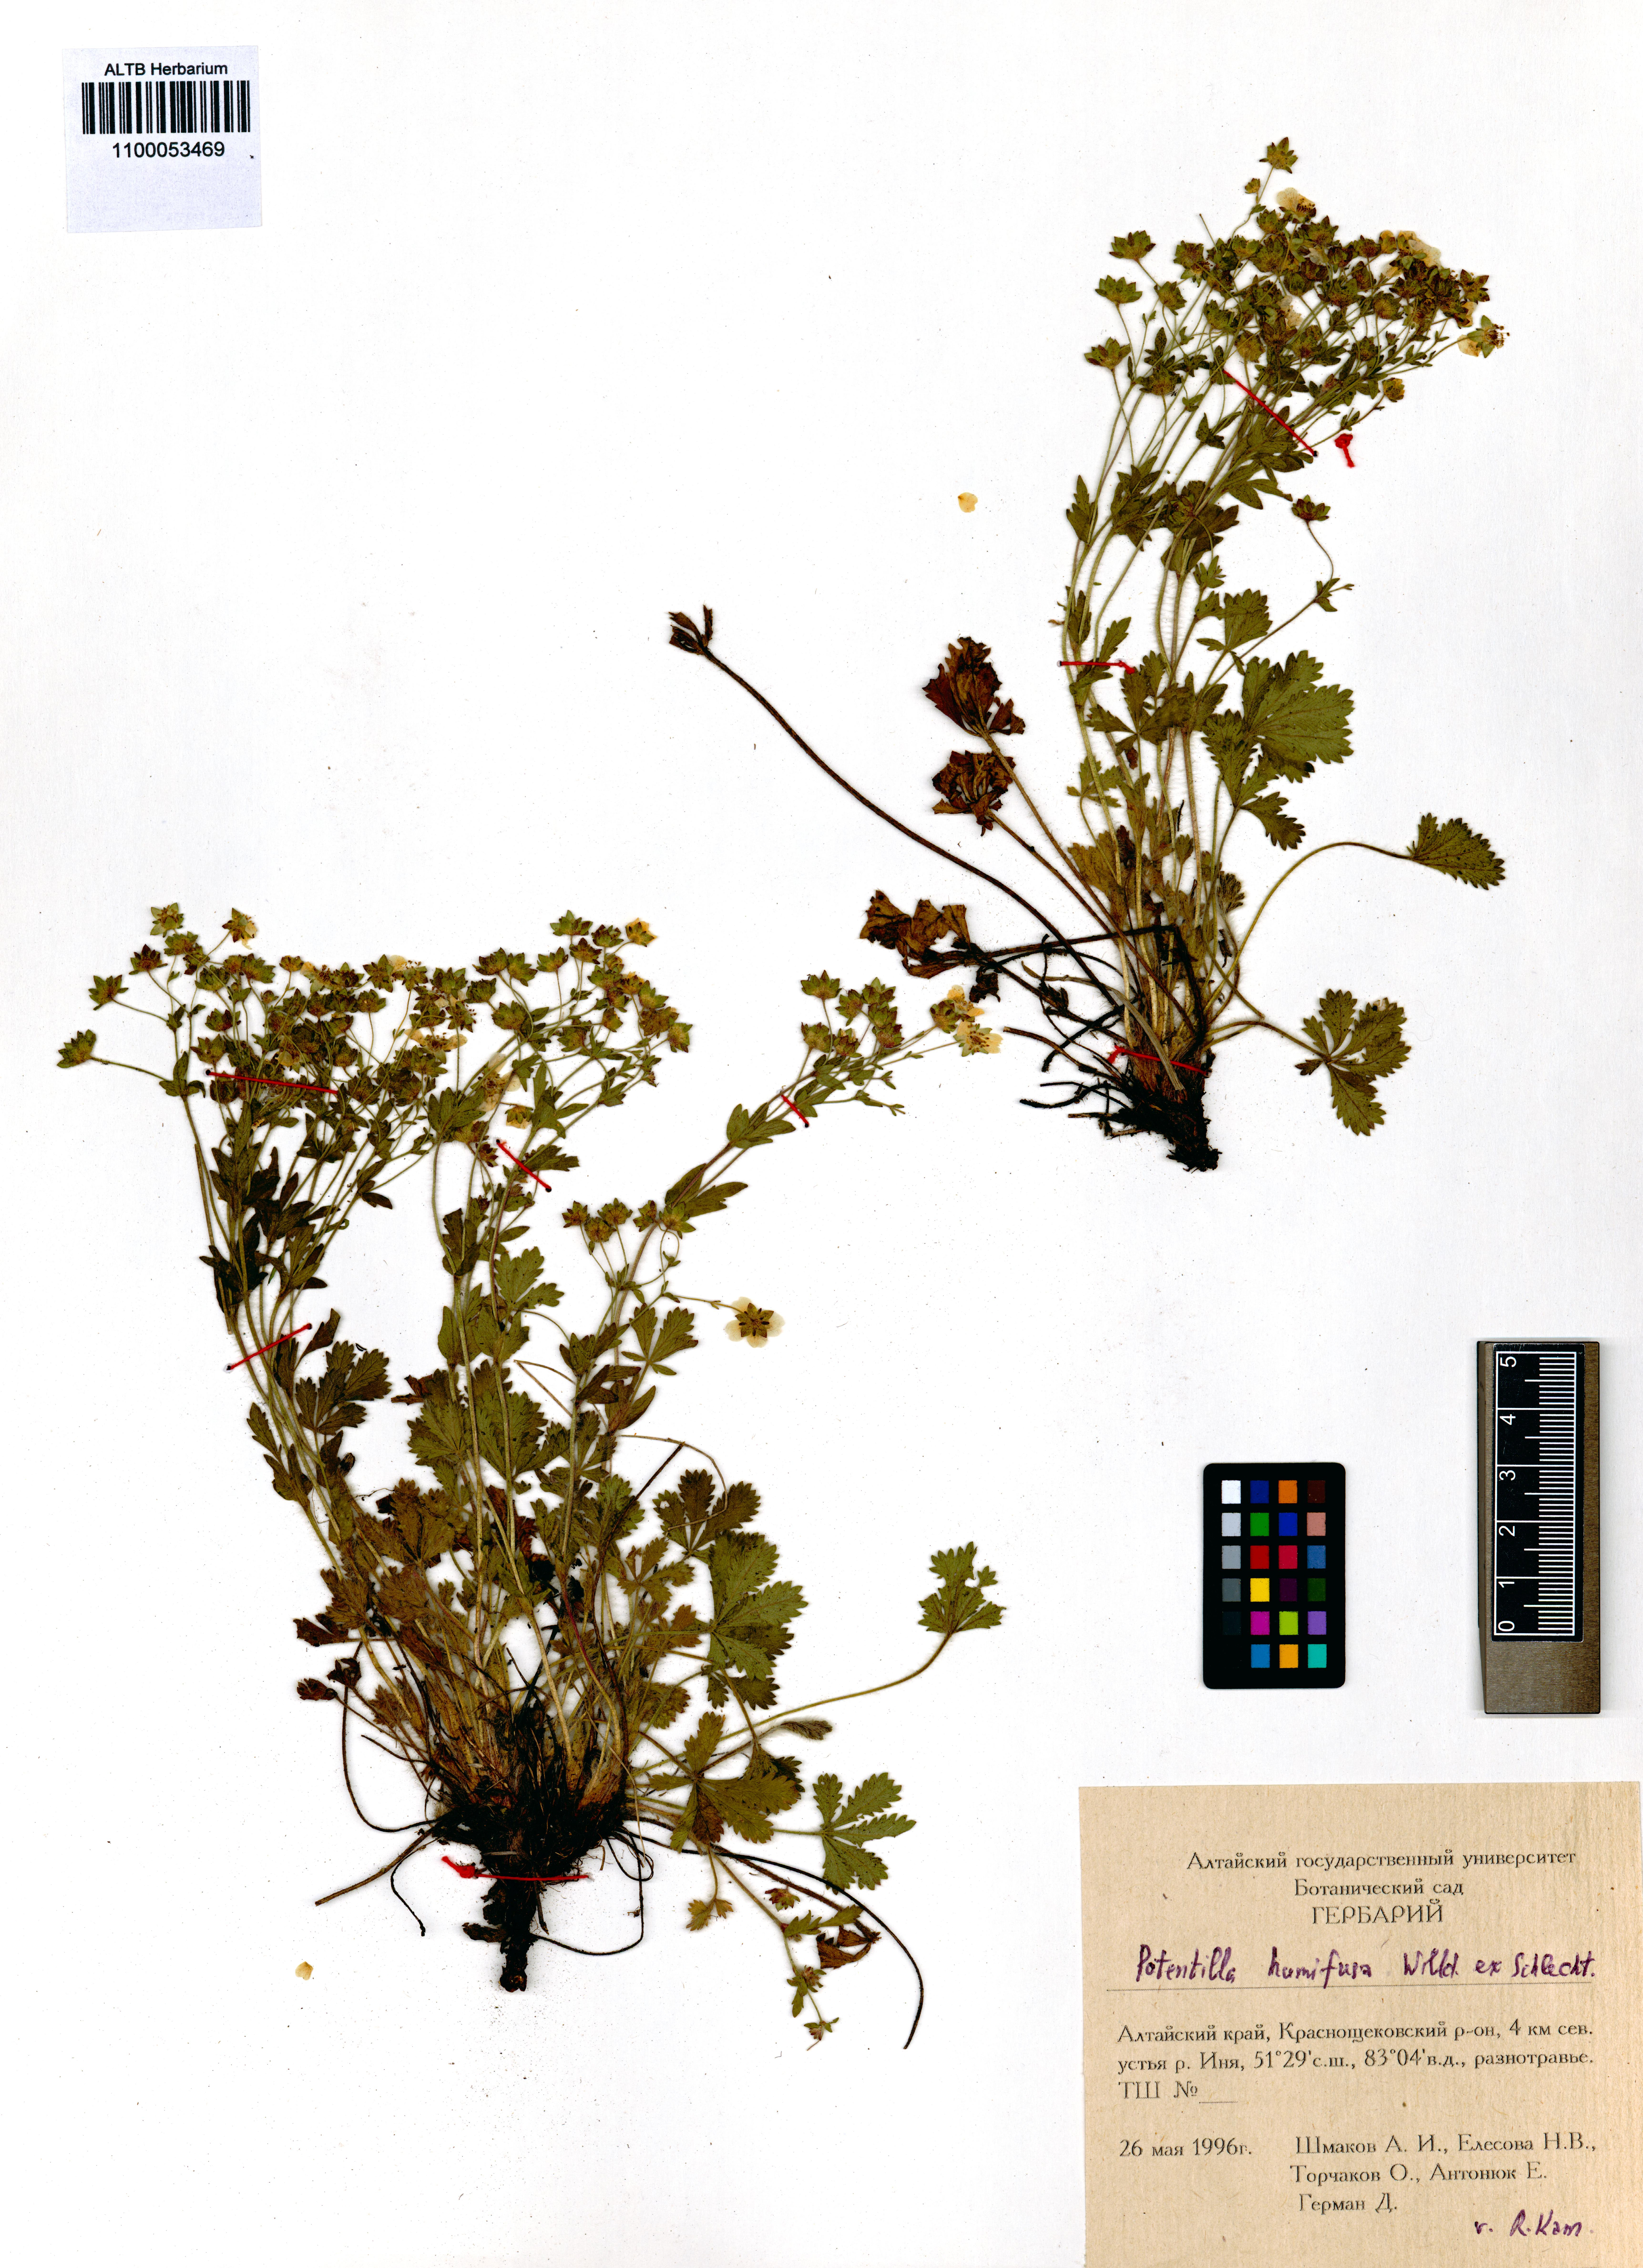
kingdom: Plantae
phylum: Tracheophyta
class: Magnoliopsida
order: Rosales
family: Rosaceae
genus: Potentilla
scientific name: Potentilla humifusa
